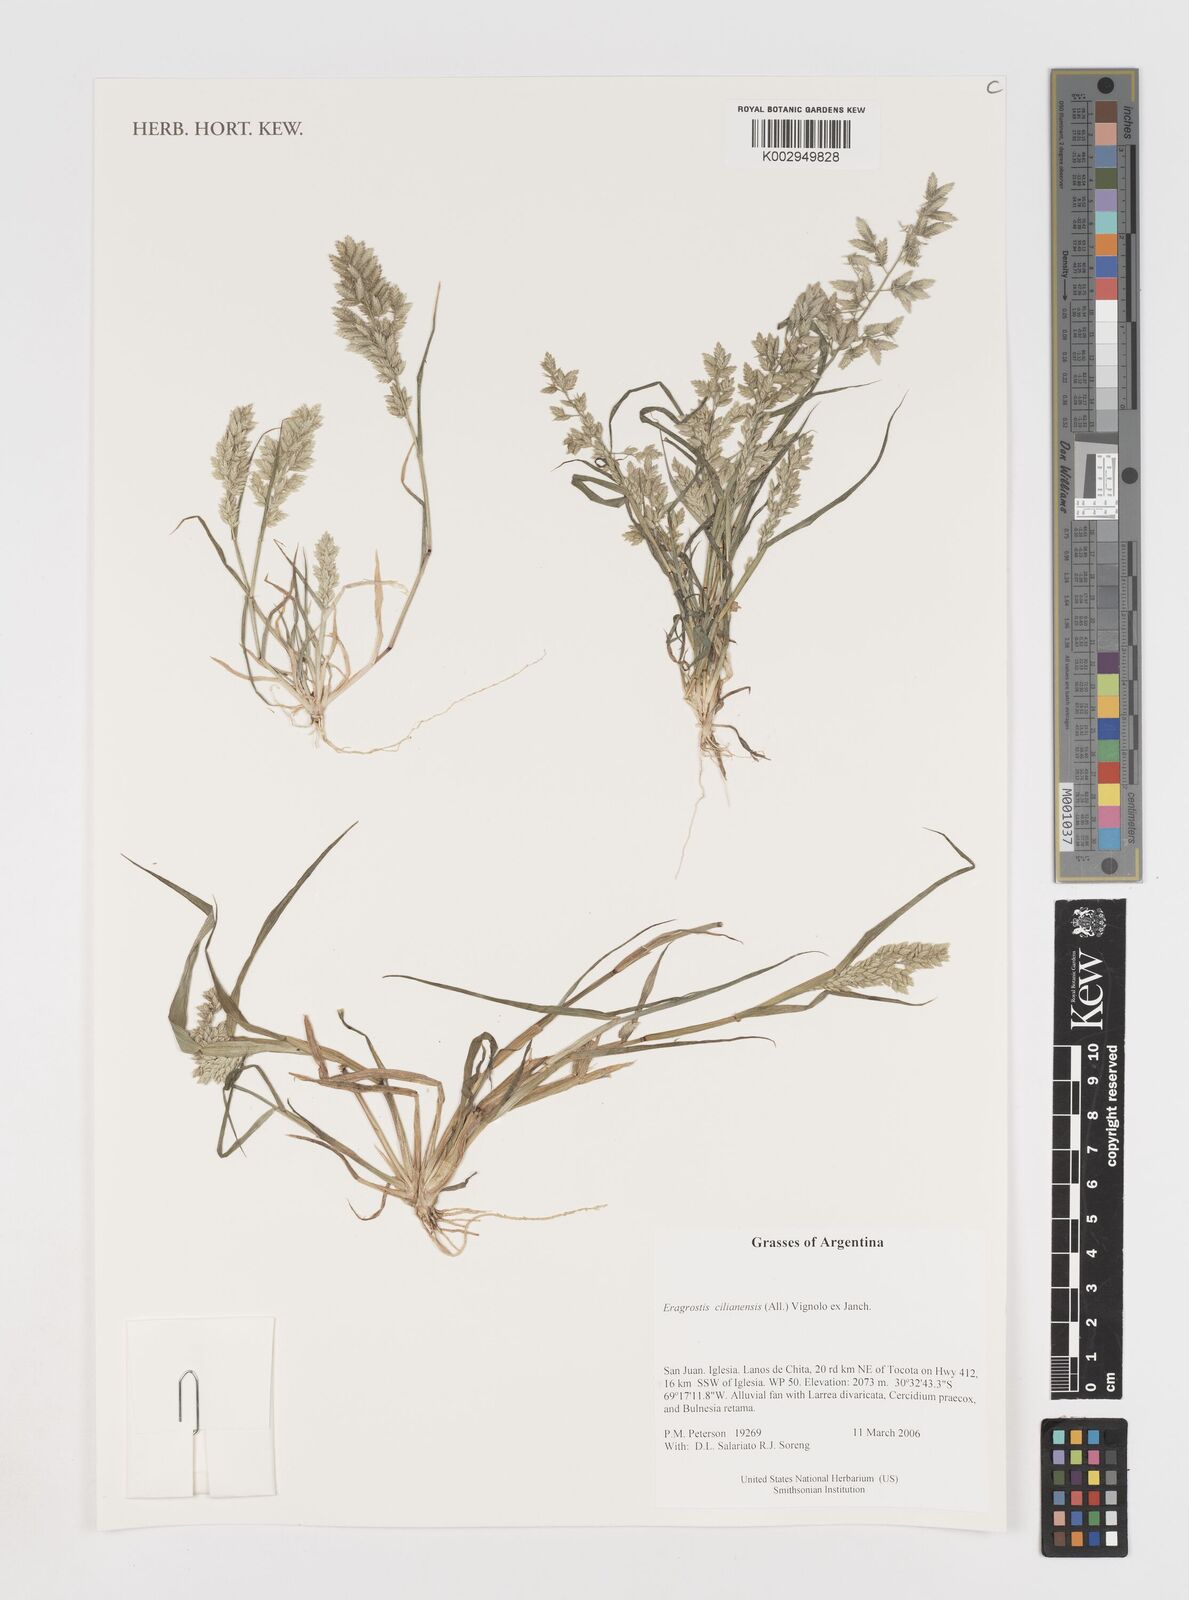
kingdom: Plantae
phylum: Tracheophyta
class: Liliopsida
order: Poales
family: Poaceae
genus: Eragrostis
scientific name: Eragrostis cilianensis
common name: Stinkgrass
